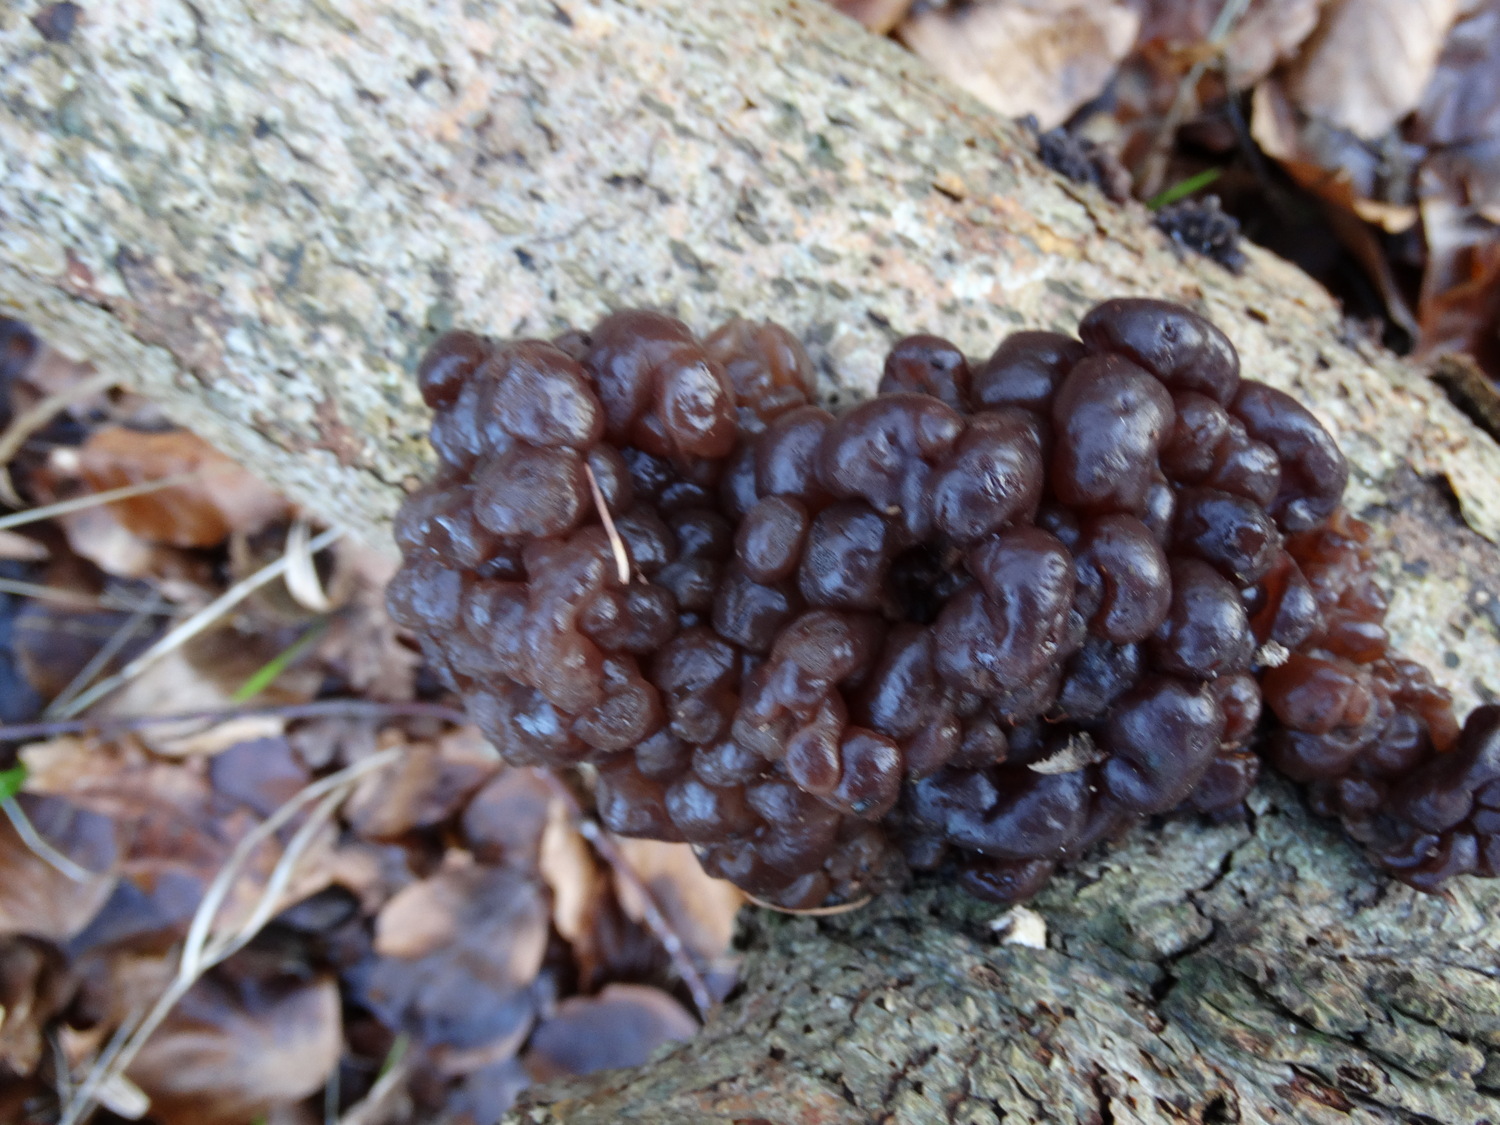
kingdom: Fungi
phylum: Ascomycota
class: Leotiomycetes
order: Helotiales
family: Gelatinodiscaceae
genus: Ascotremella
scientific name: Ascotremella faginea
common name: hjerne-bævreskive
